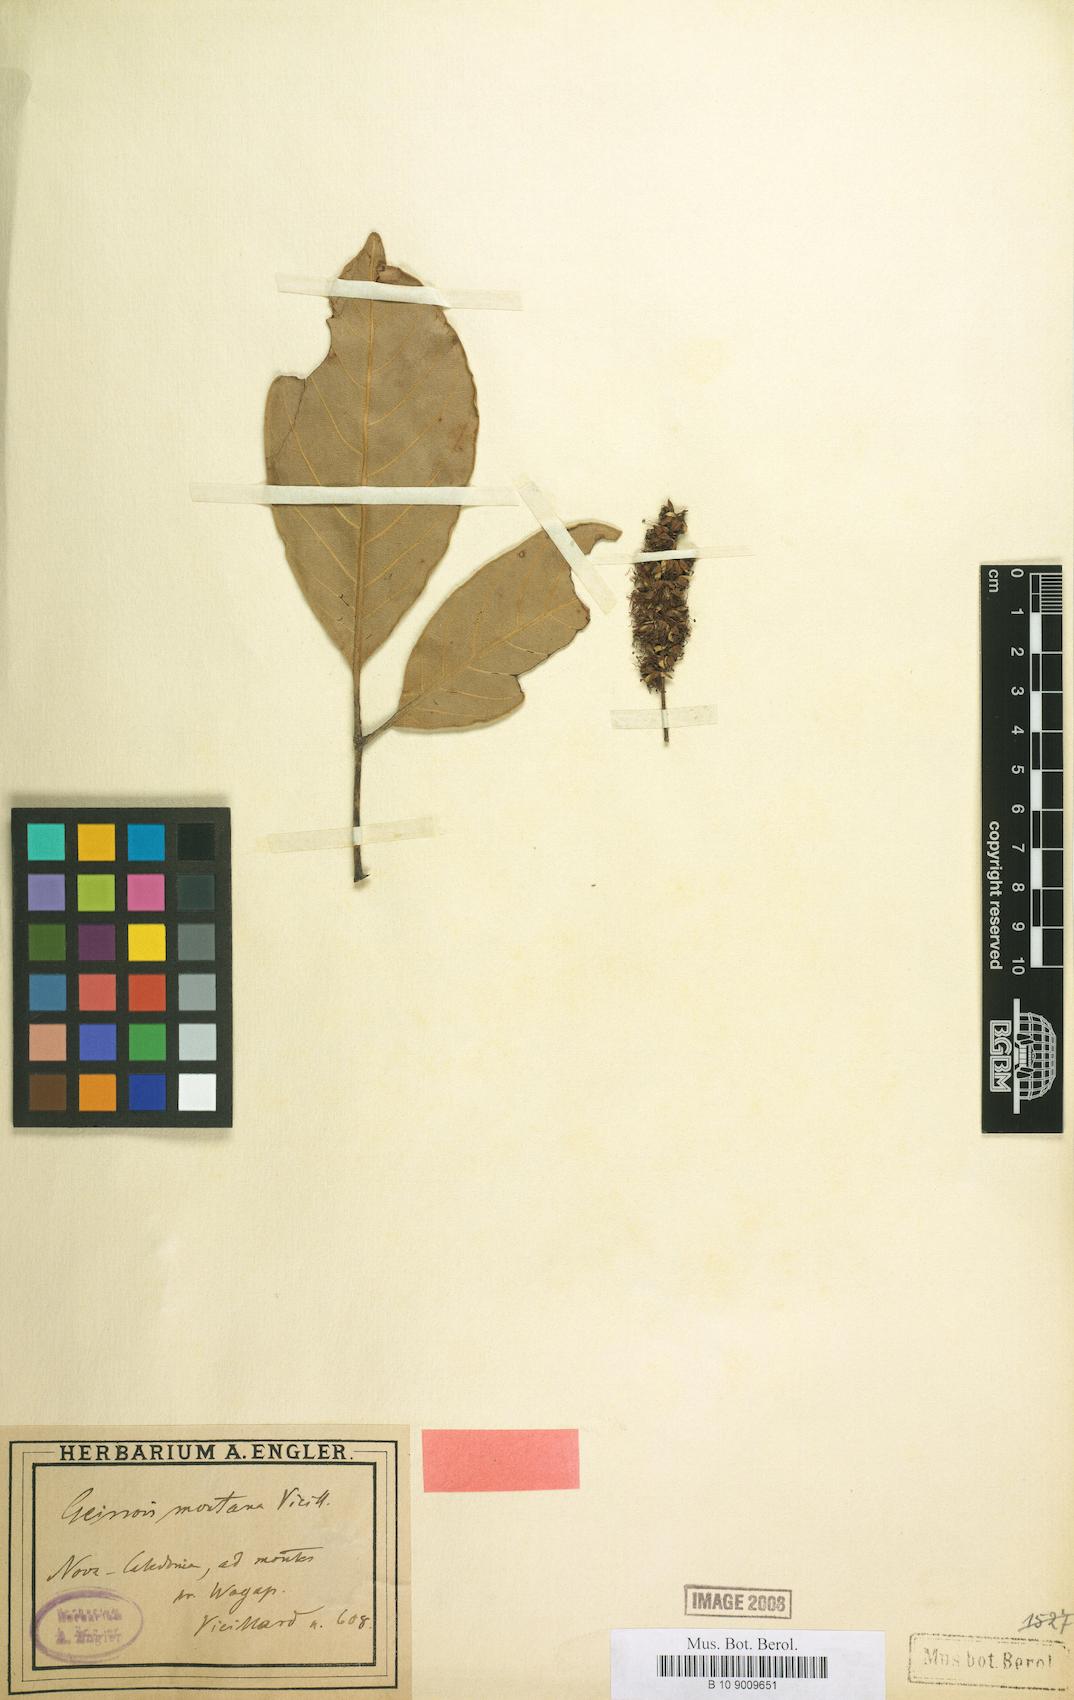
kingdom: Plantae
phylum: Tracheophyta
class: Magnoliopsida
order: Oxalidales
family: Cunoniaceae
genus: Geissois
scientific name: Geissois montana
